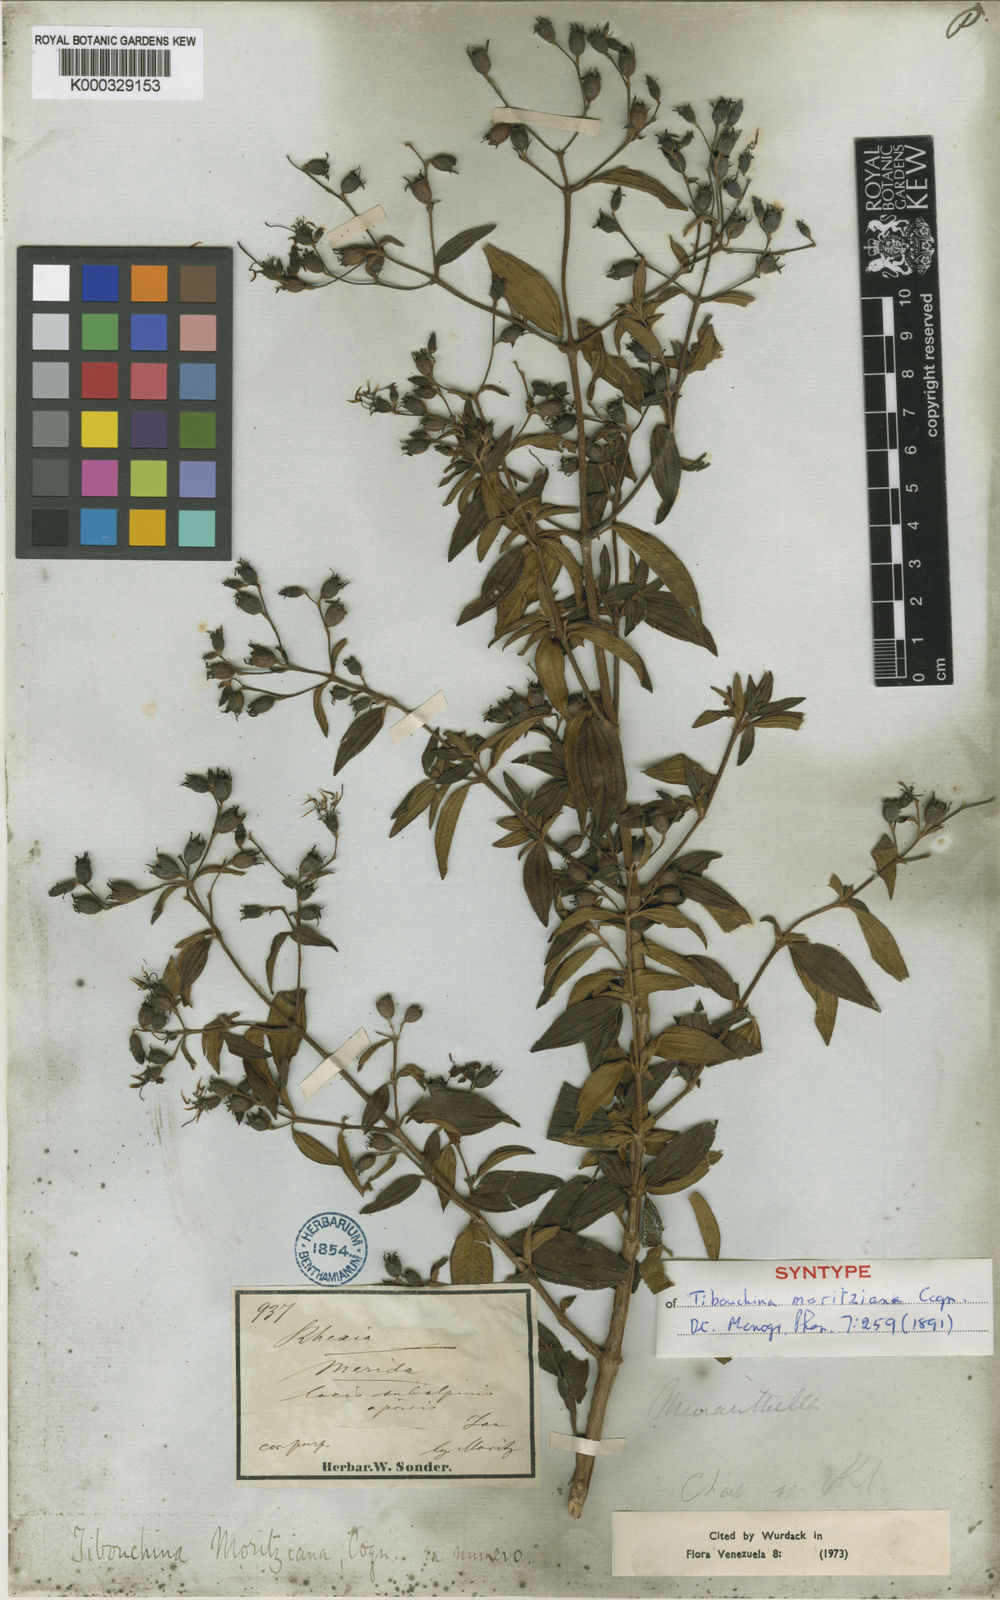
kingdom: Plantae
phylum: Tracheophyta
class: Magnoliopsida
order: Myrtales
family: Melastomataceae
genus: Chaetogastra
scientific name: Chaetogastra geitneriana
